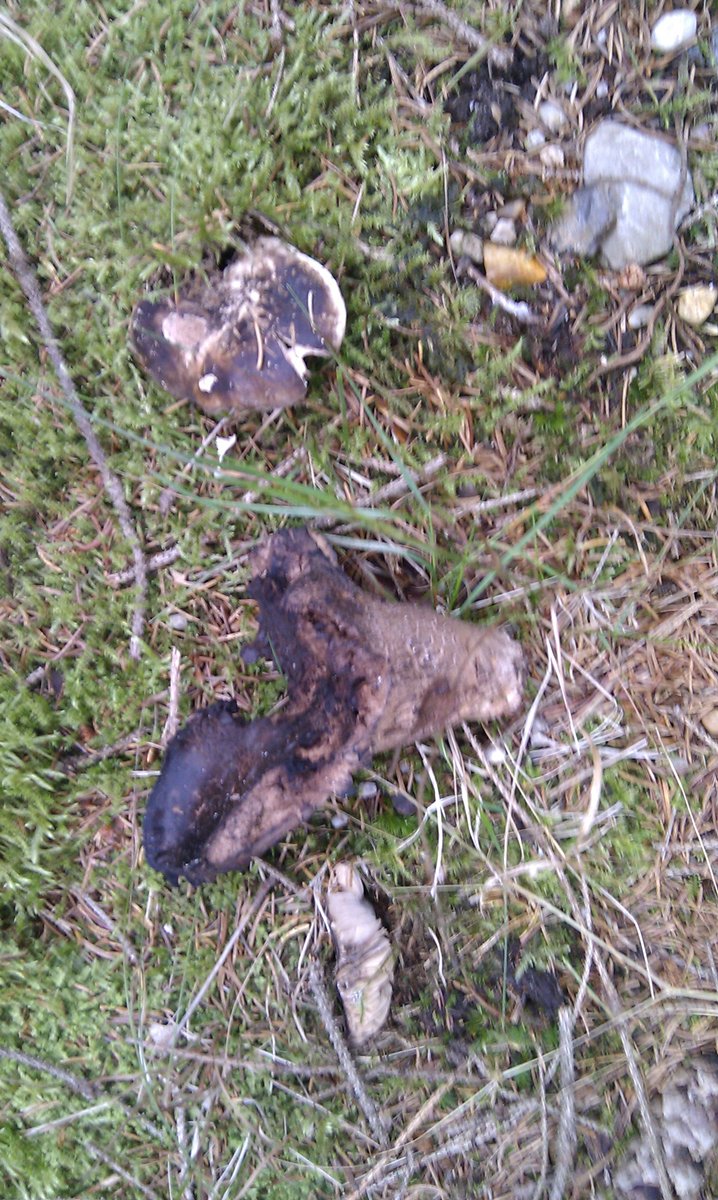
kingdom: Fungi
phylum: Basidiomycota
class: Agaricomycetes
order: Russulales
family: Russulaceae
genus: Russula
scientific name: Russula adusta
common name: sværtende skørhat
